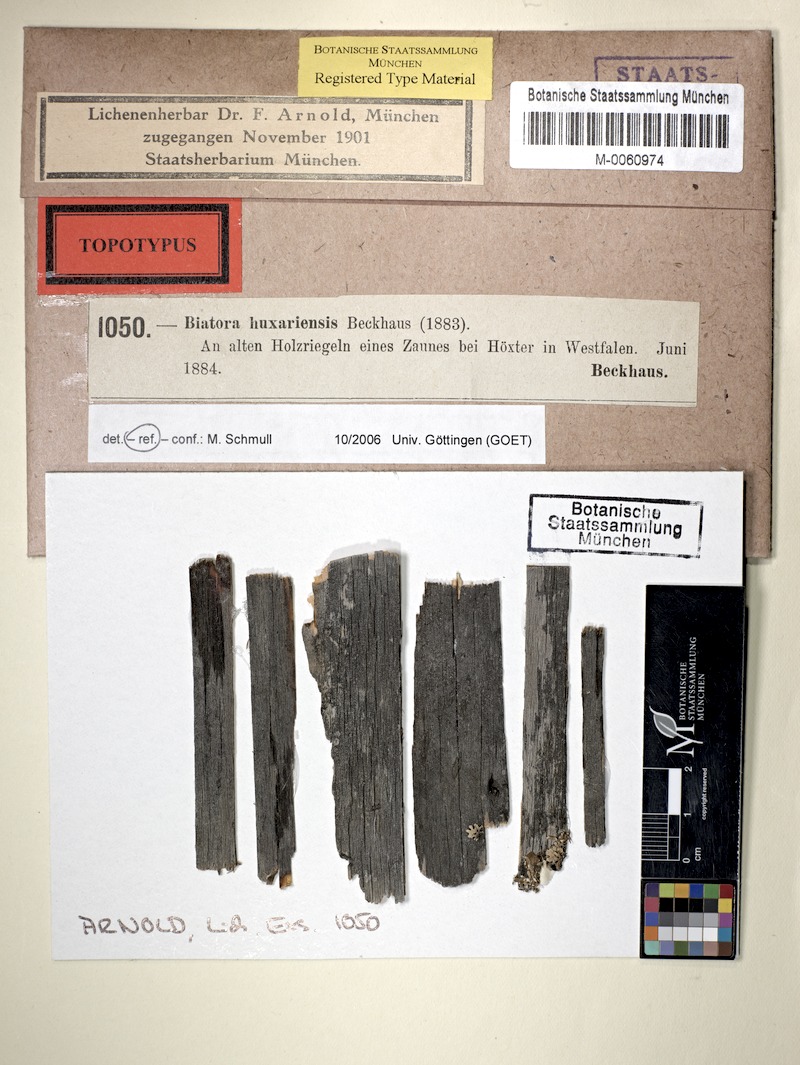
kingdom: Fungi
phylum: Ascomycota
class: Lecanoromycetes
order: Lecideales
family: Lecideaceae
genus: Lecidea
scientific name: Lecidea huxariensis
